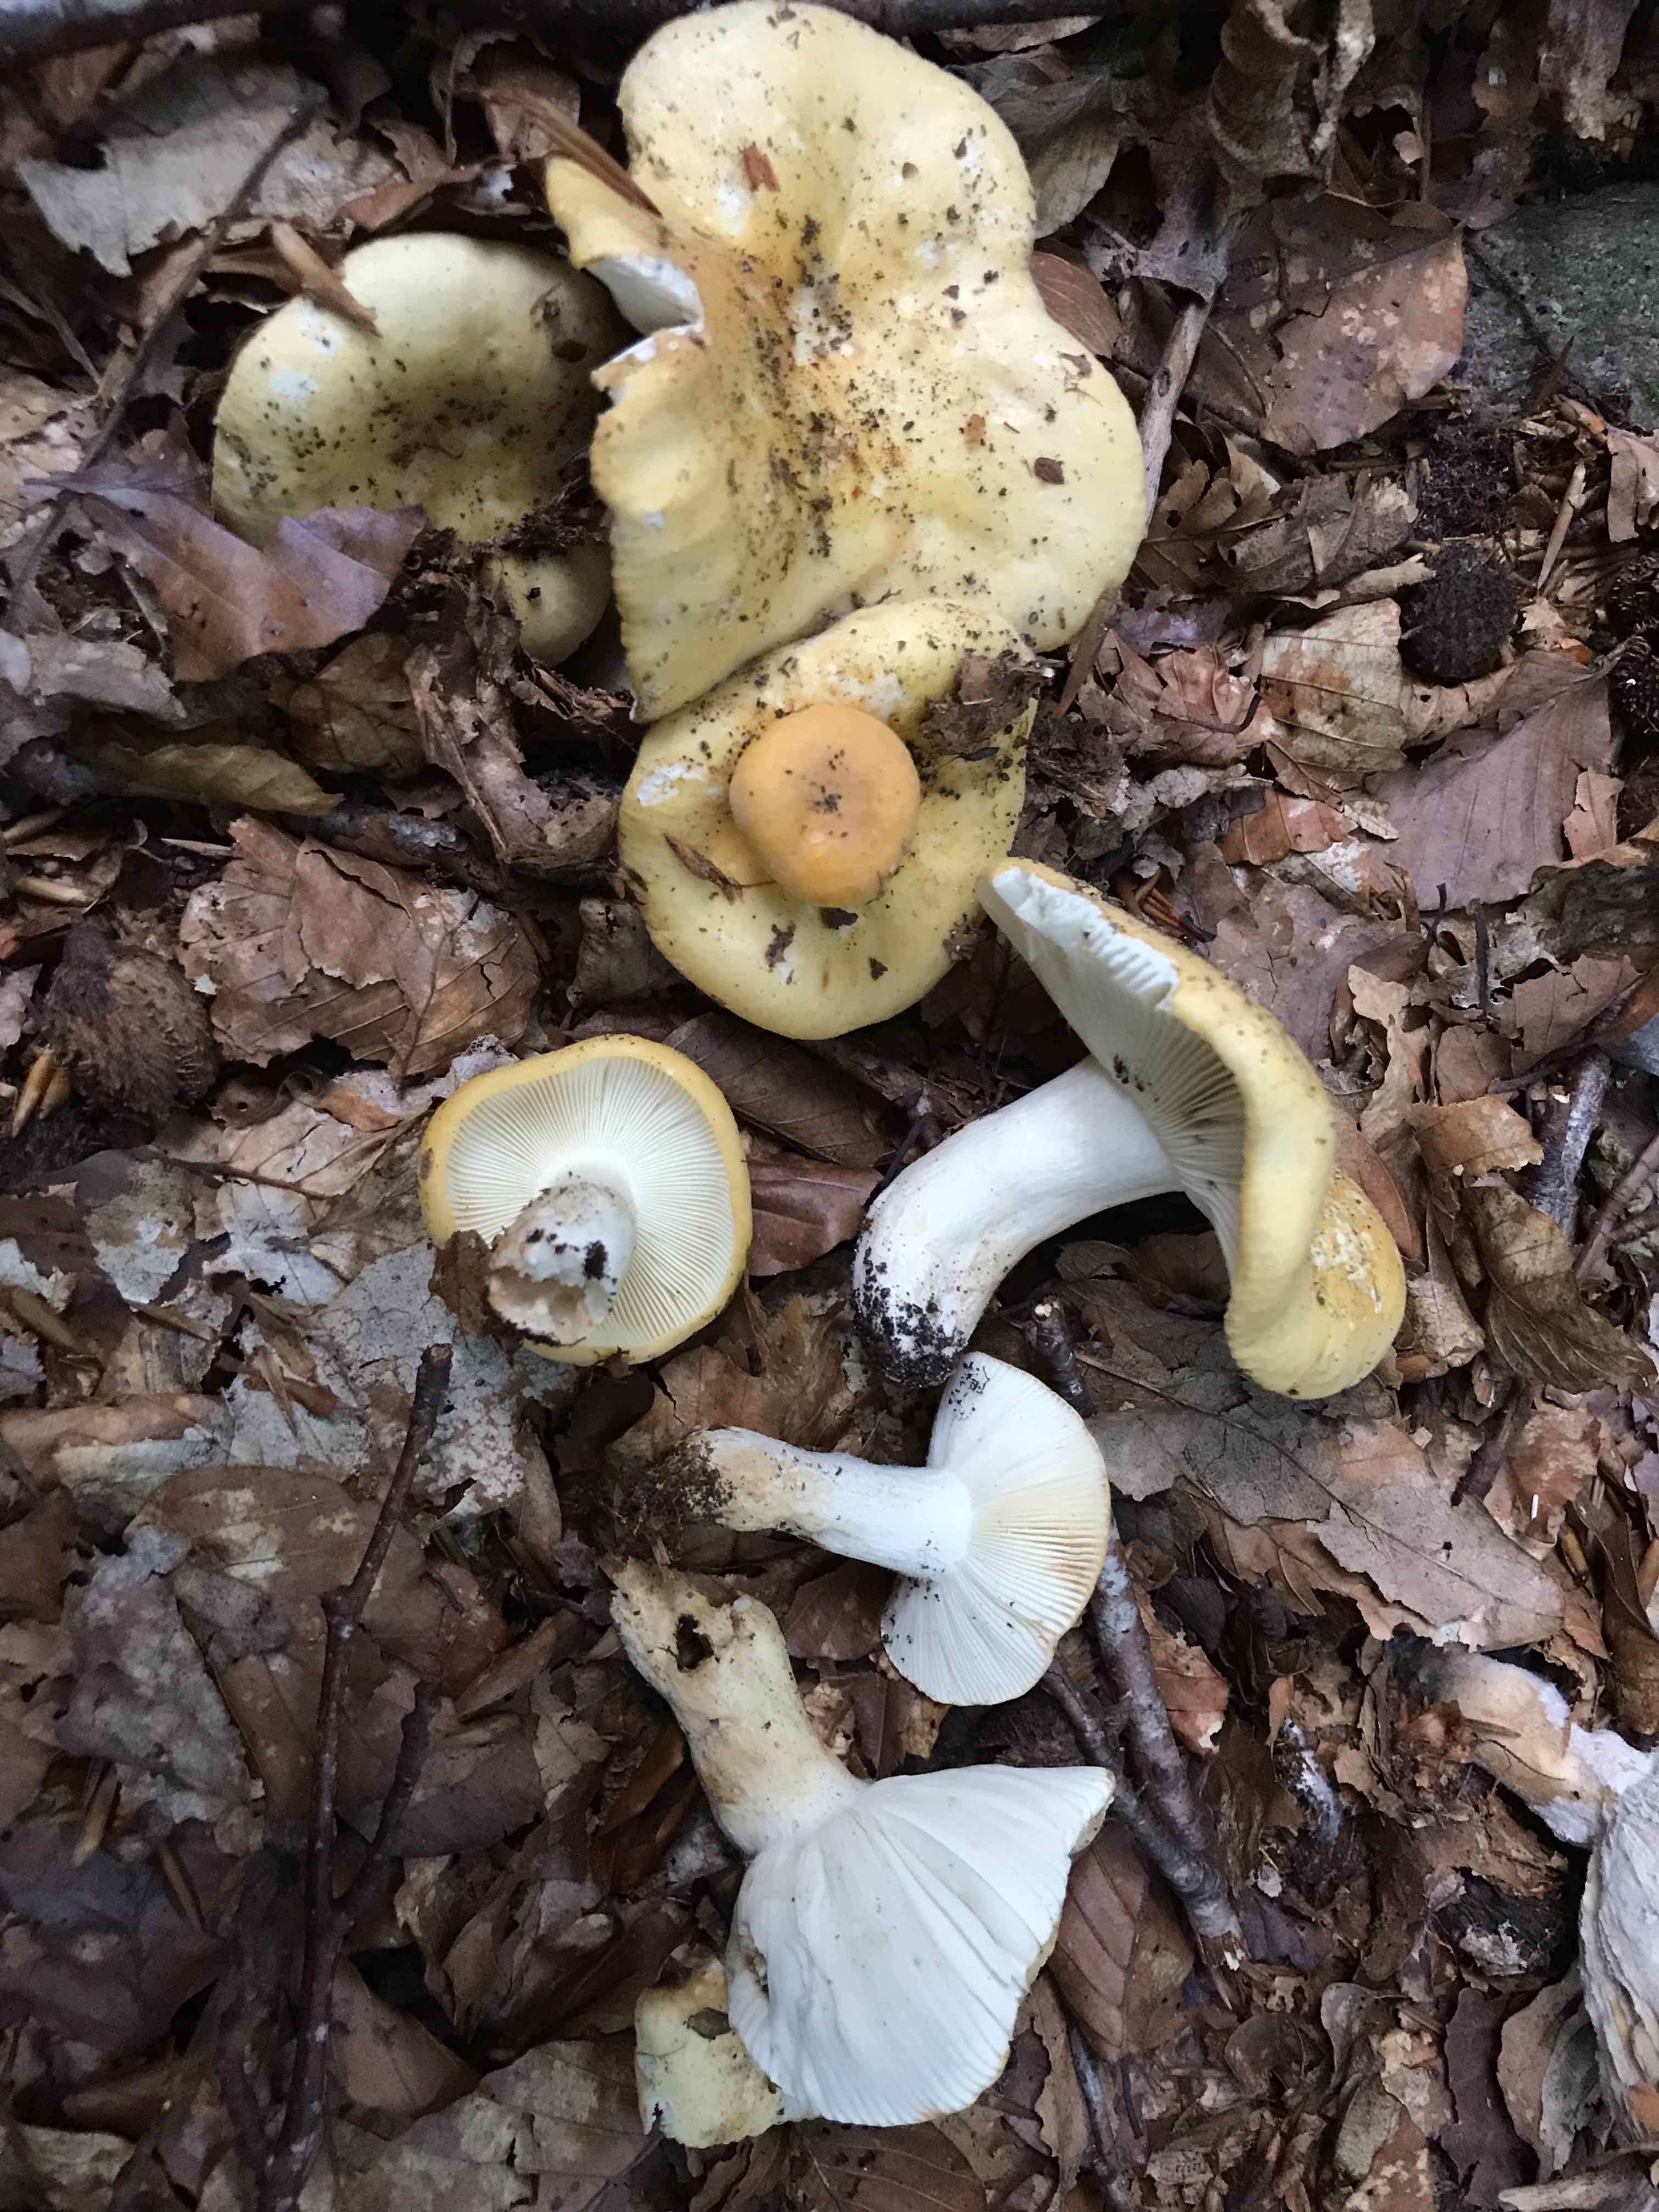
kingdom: Fungi
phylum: Basidiomycota
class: Agaricomycetes
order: Russulales
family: Russulaceae
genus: Russula
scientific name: Russula ochroleuca
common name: okkergul skørhat
